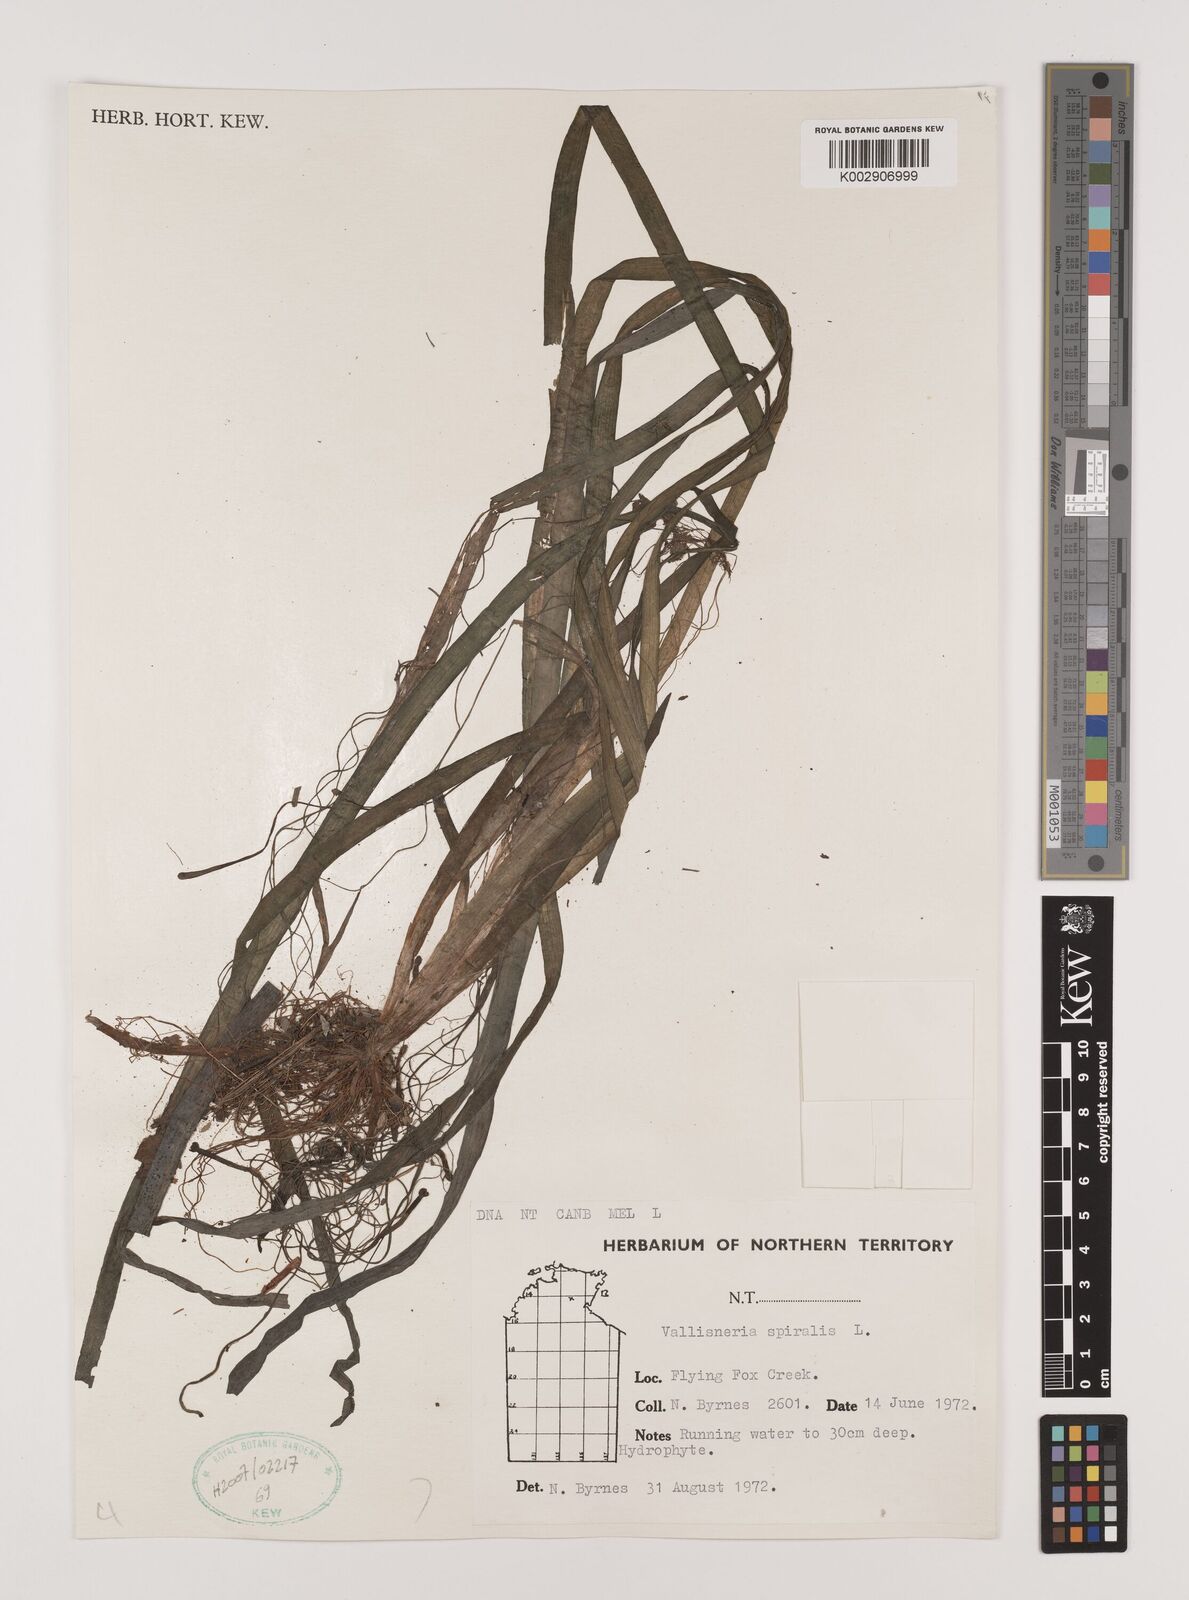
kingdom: Plantae
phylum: Tracheophyta
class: Liliopsida
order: Alismatales
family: Hydrocharitaceae
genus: Vallisneria
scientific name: Vallisneria spiralis
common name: Tapegrass
